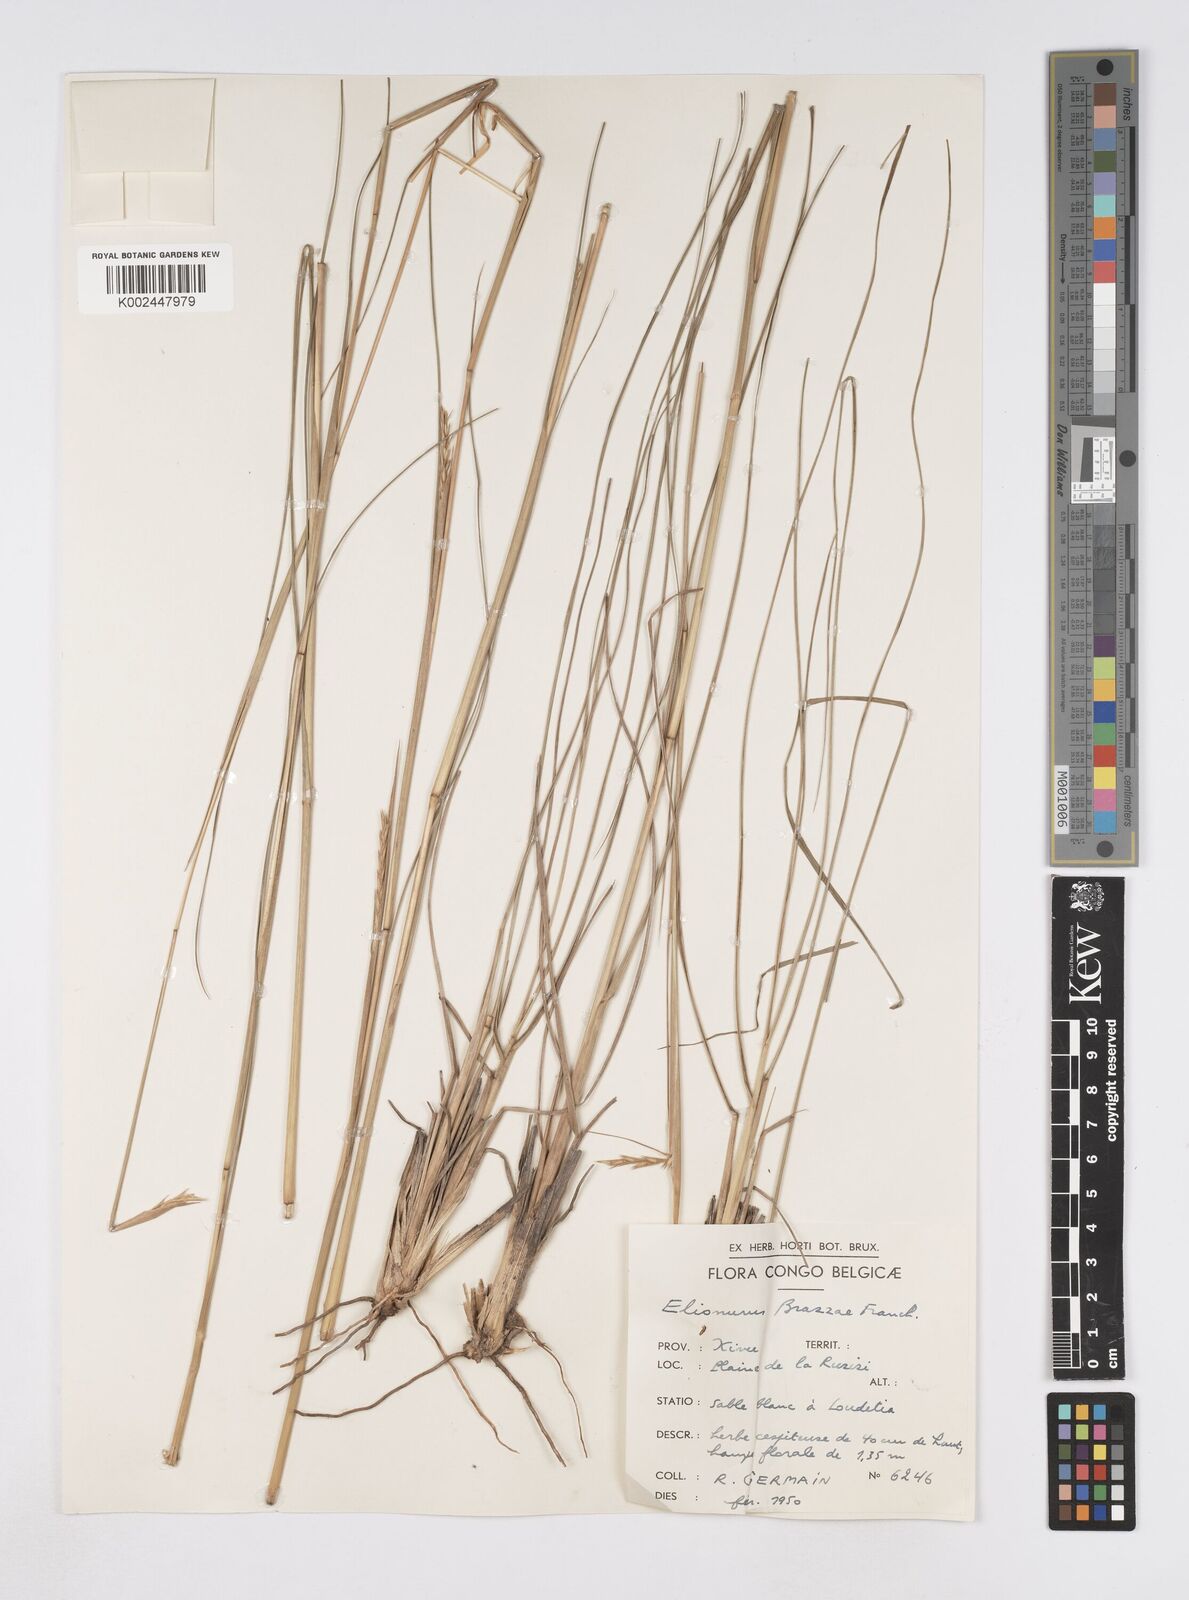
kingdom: Plantae
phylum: Tracheophyta
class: Liliopsida
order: Poales
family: Poaceae
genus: Elionurus
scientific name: Elionurus tripsacoides
